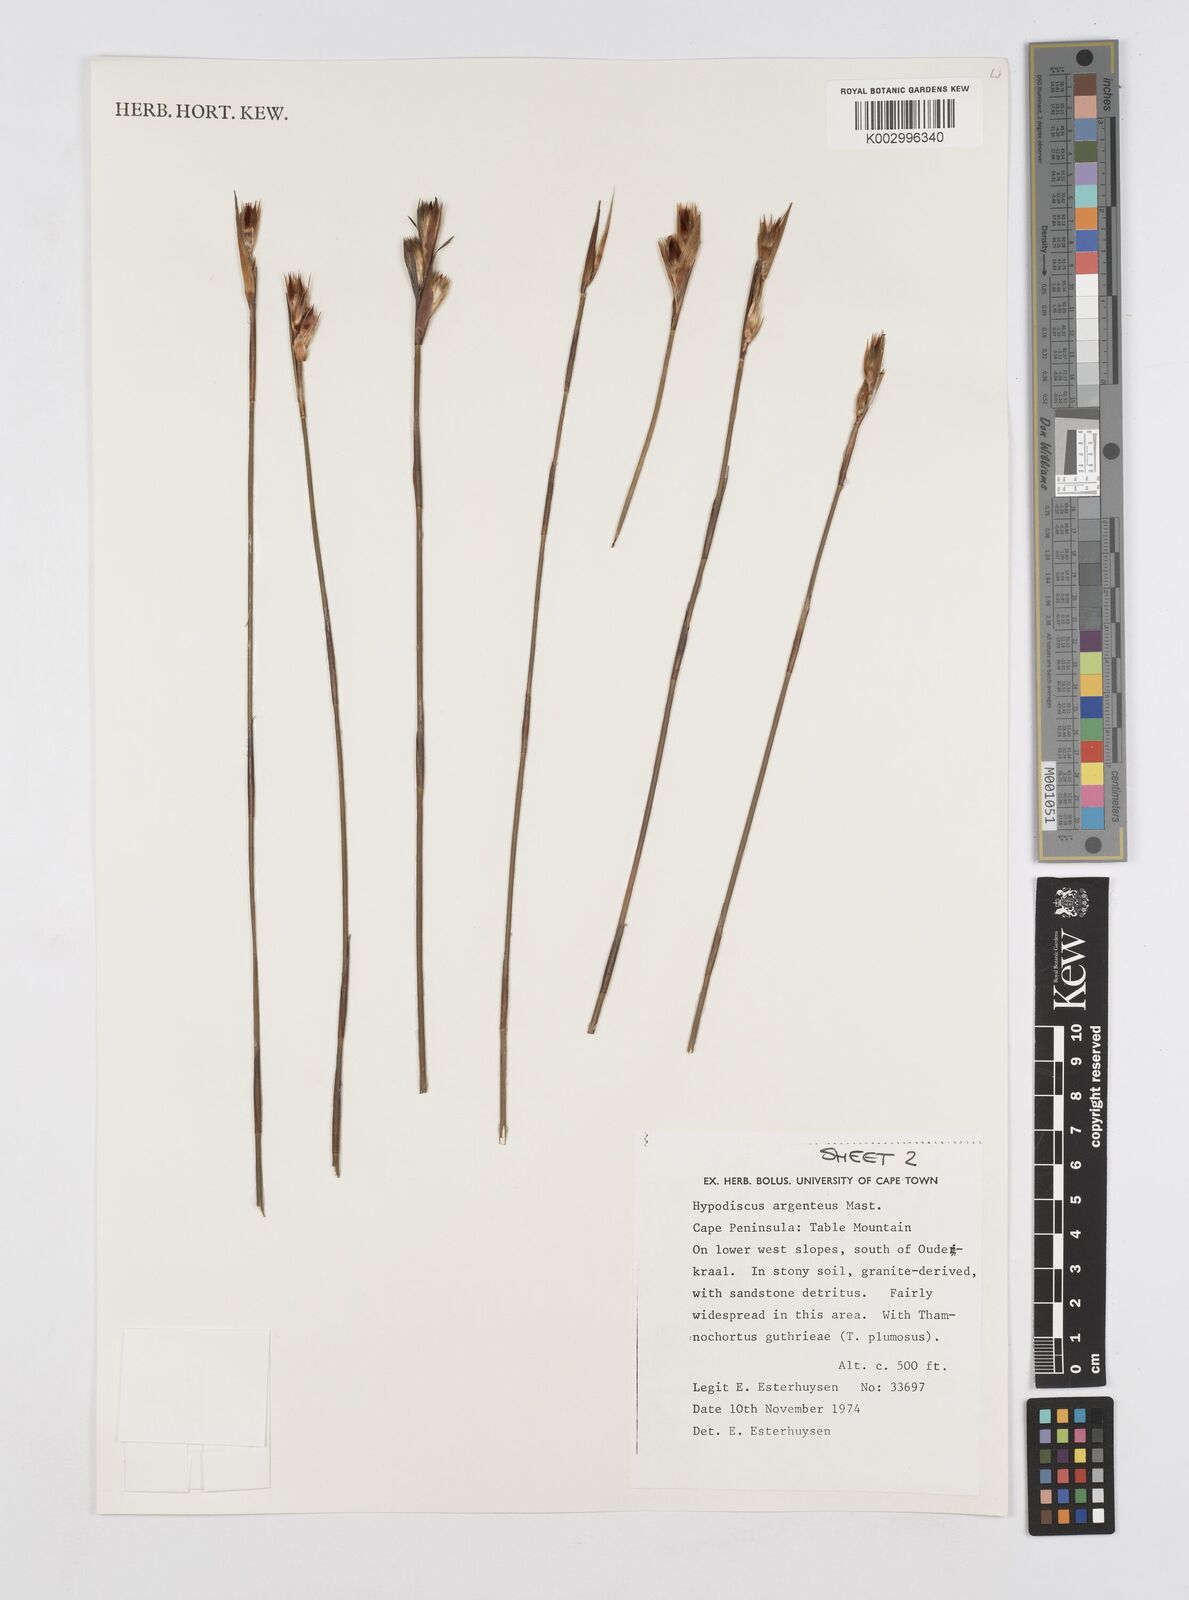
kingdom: Plantae
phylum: Tracheophyta
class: Liliopsida
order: Poales
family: Restionaceae
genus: Hypodiscus
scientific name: Hypodiscus argenteus
